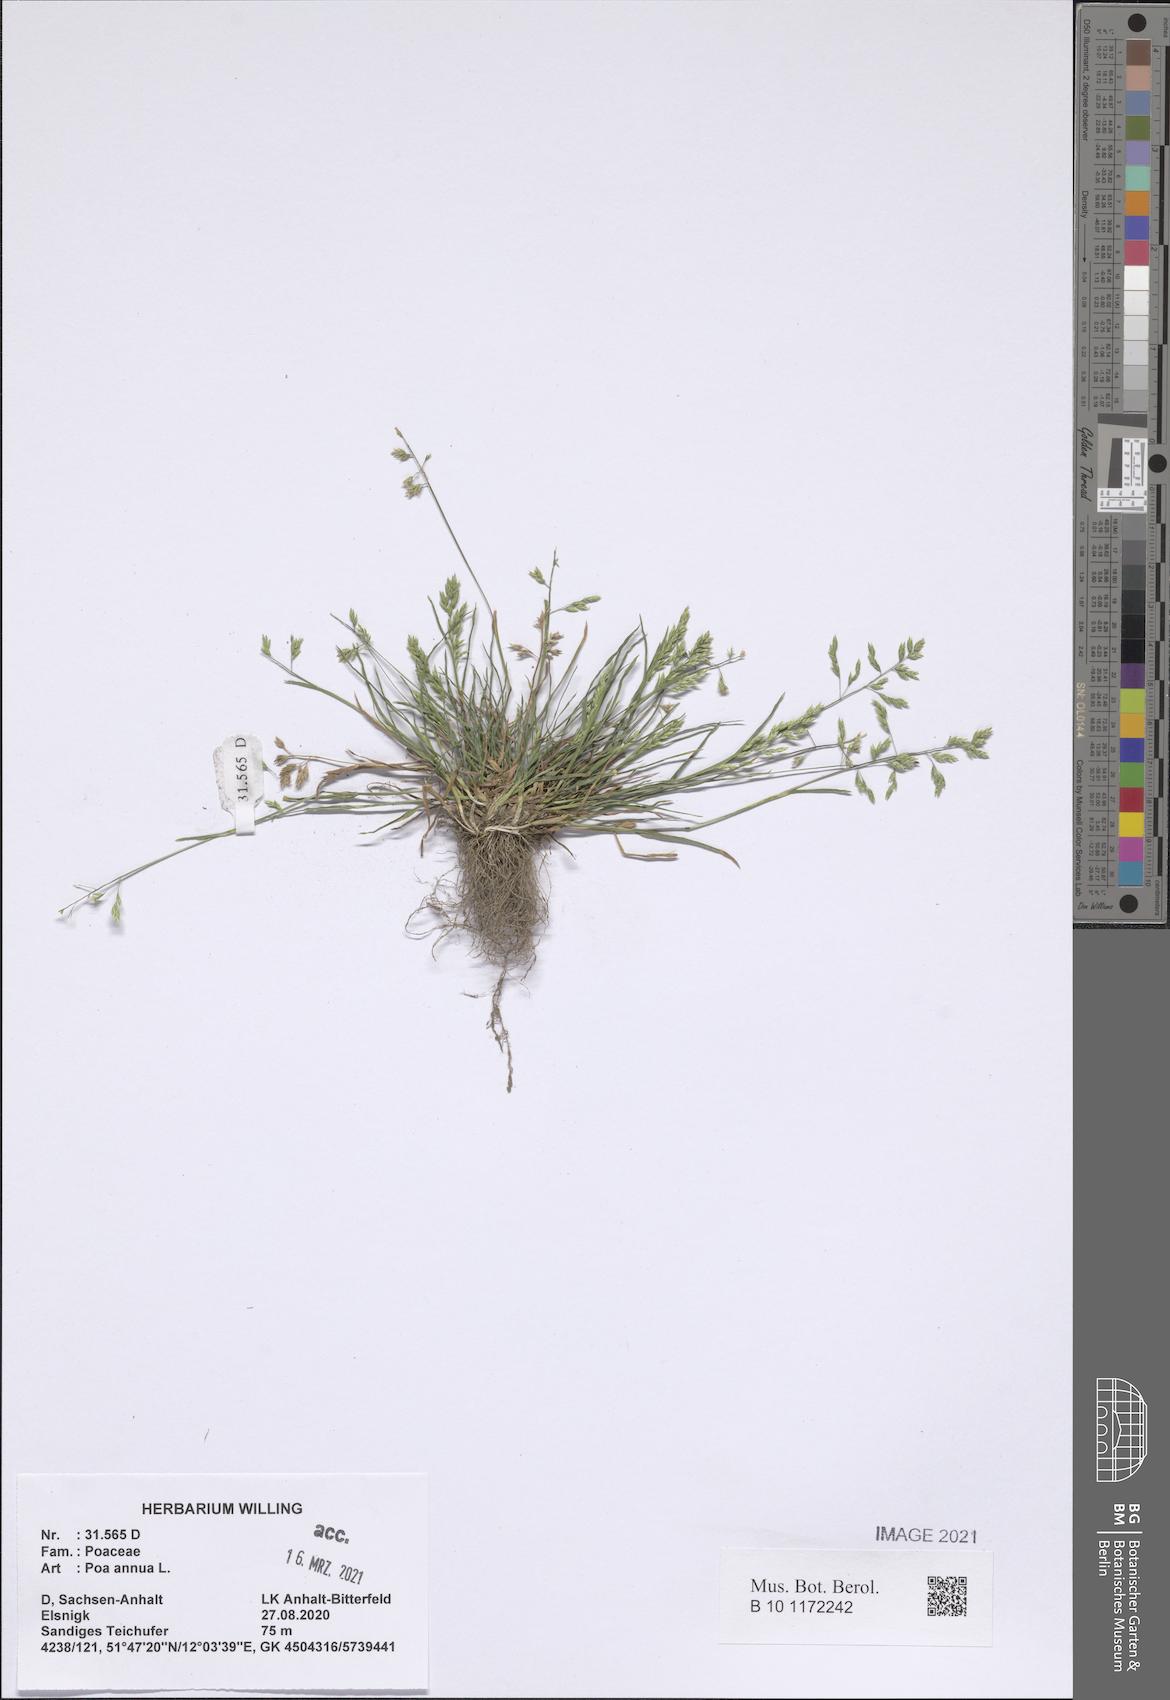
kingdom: Plantae
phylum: Tracheophyta
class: Liliopsida
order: Poales
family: Poaceae
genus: Poa
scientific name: Poa annua
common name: Annual bluegrass
